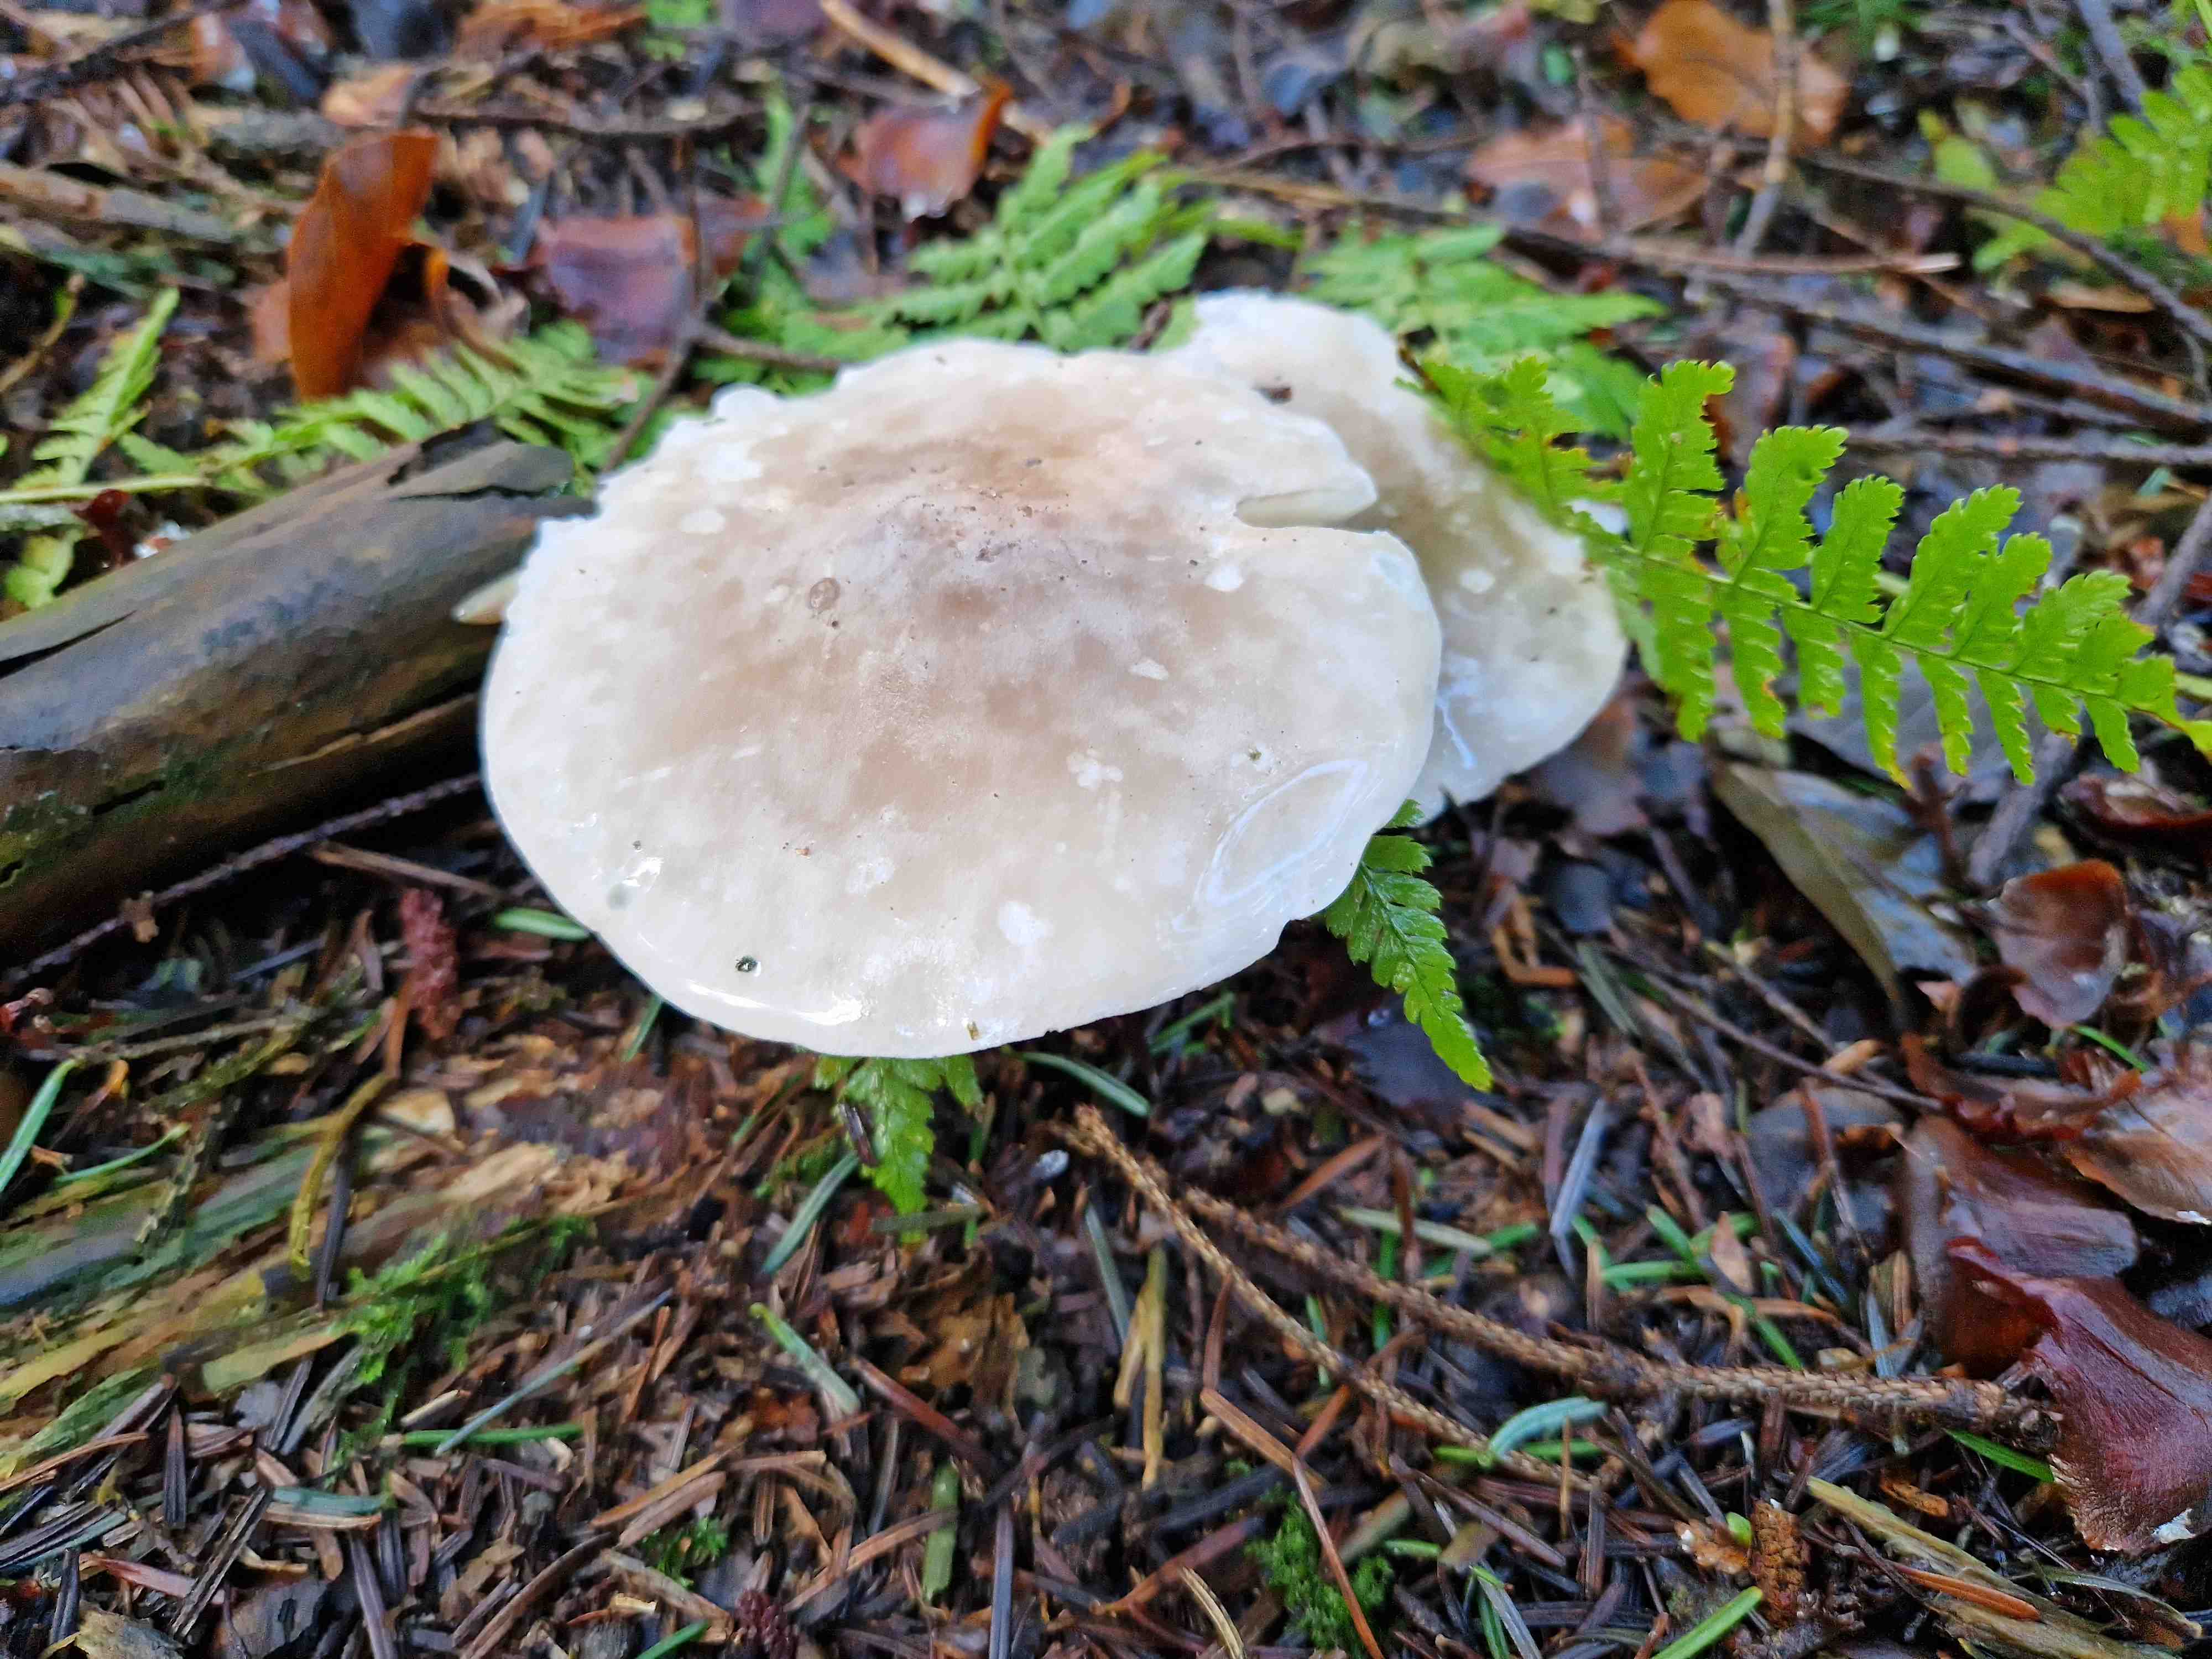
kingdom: Fungi
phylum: Basidiomycota
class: Agaricomycetes
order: Agaricales
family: Tricholomataceae
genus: Clitocybe
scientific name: Clitocybe nebularis
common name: tåge-tragthat
